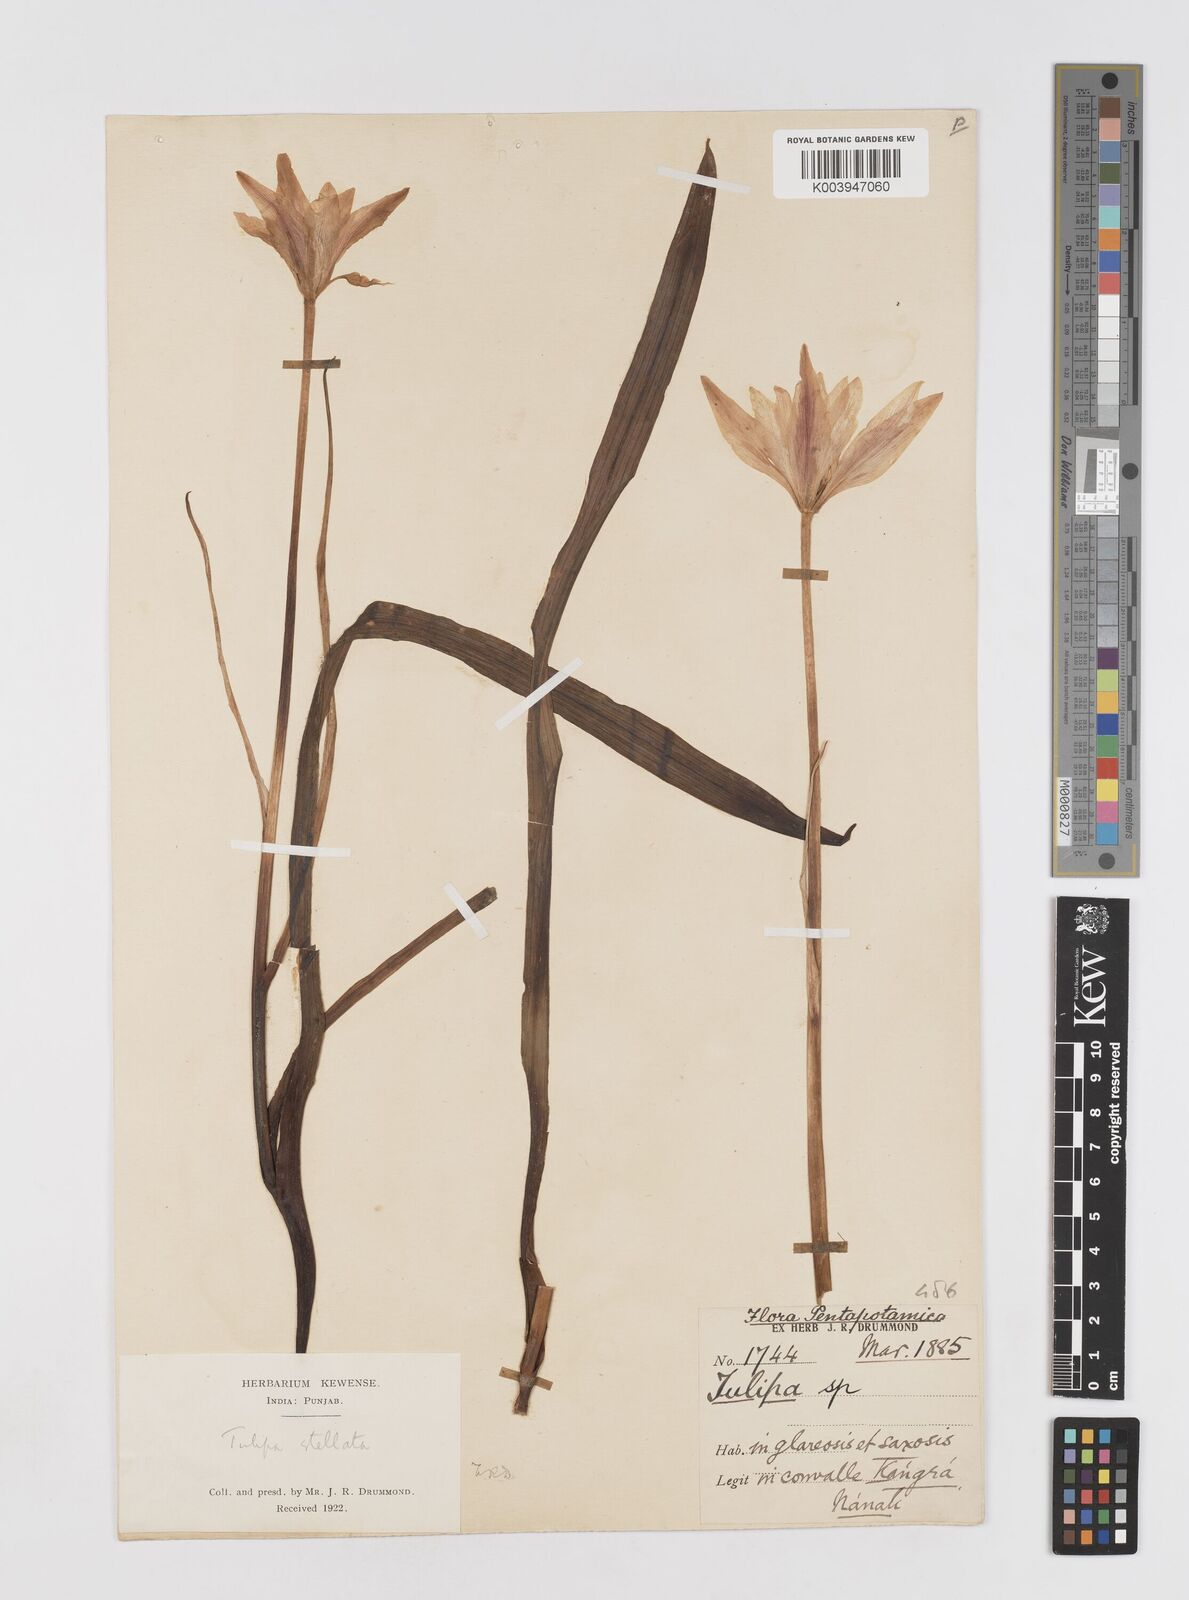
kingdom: Plantae
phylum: Tracheophyta
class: Liliopsida
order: Liliales
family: Liliaceae
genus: Tulipa
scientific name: Tulipa clusiana
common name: Lady tulip
